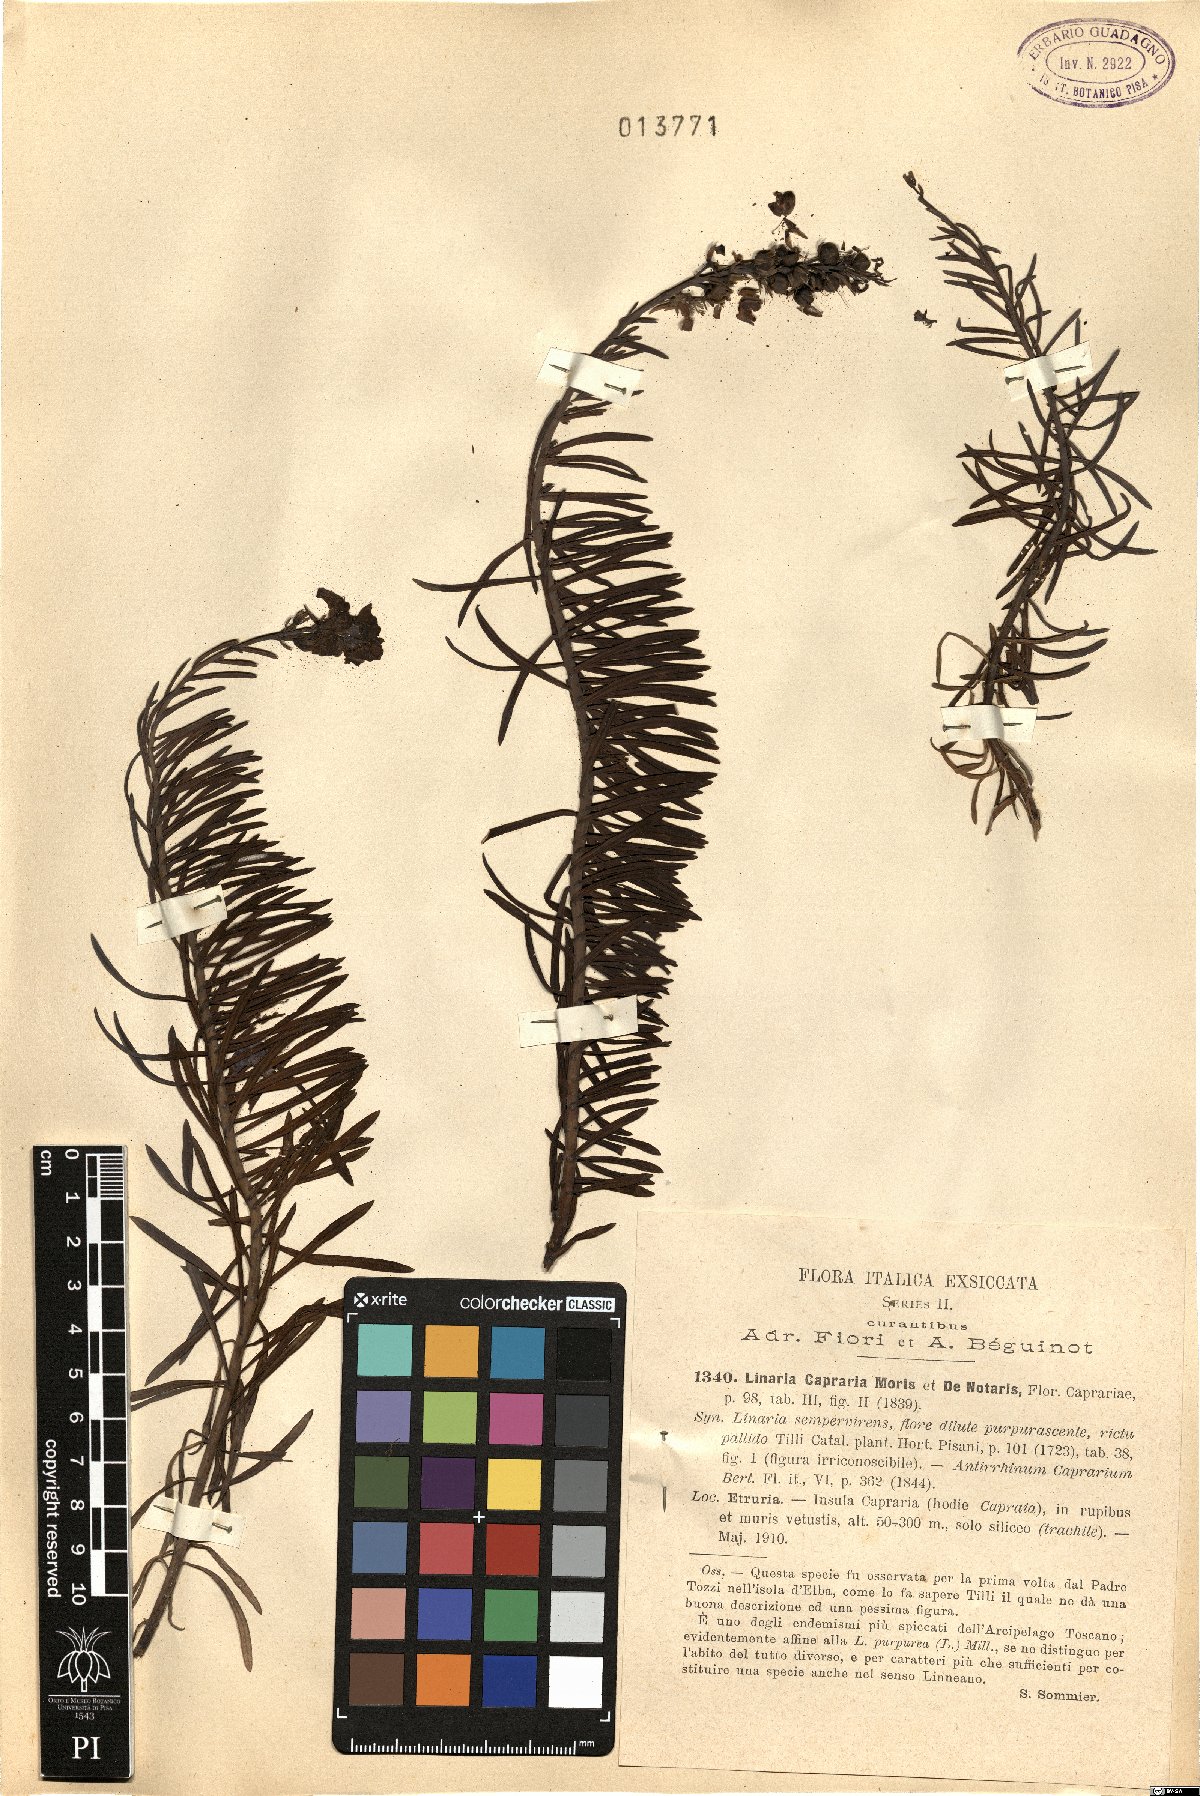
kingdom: Plantae
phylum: Tracheophyta
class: Magnoliopsida
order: Lamiales
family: Plantaginaceae
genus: Linaria
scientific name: Linaria capraria
